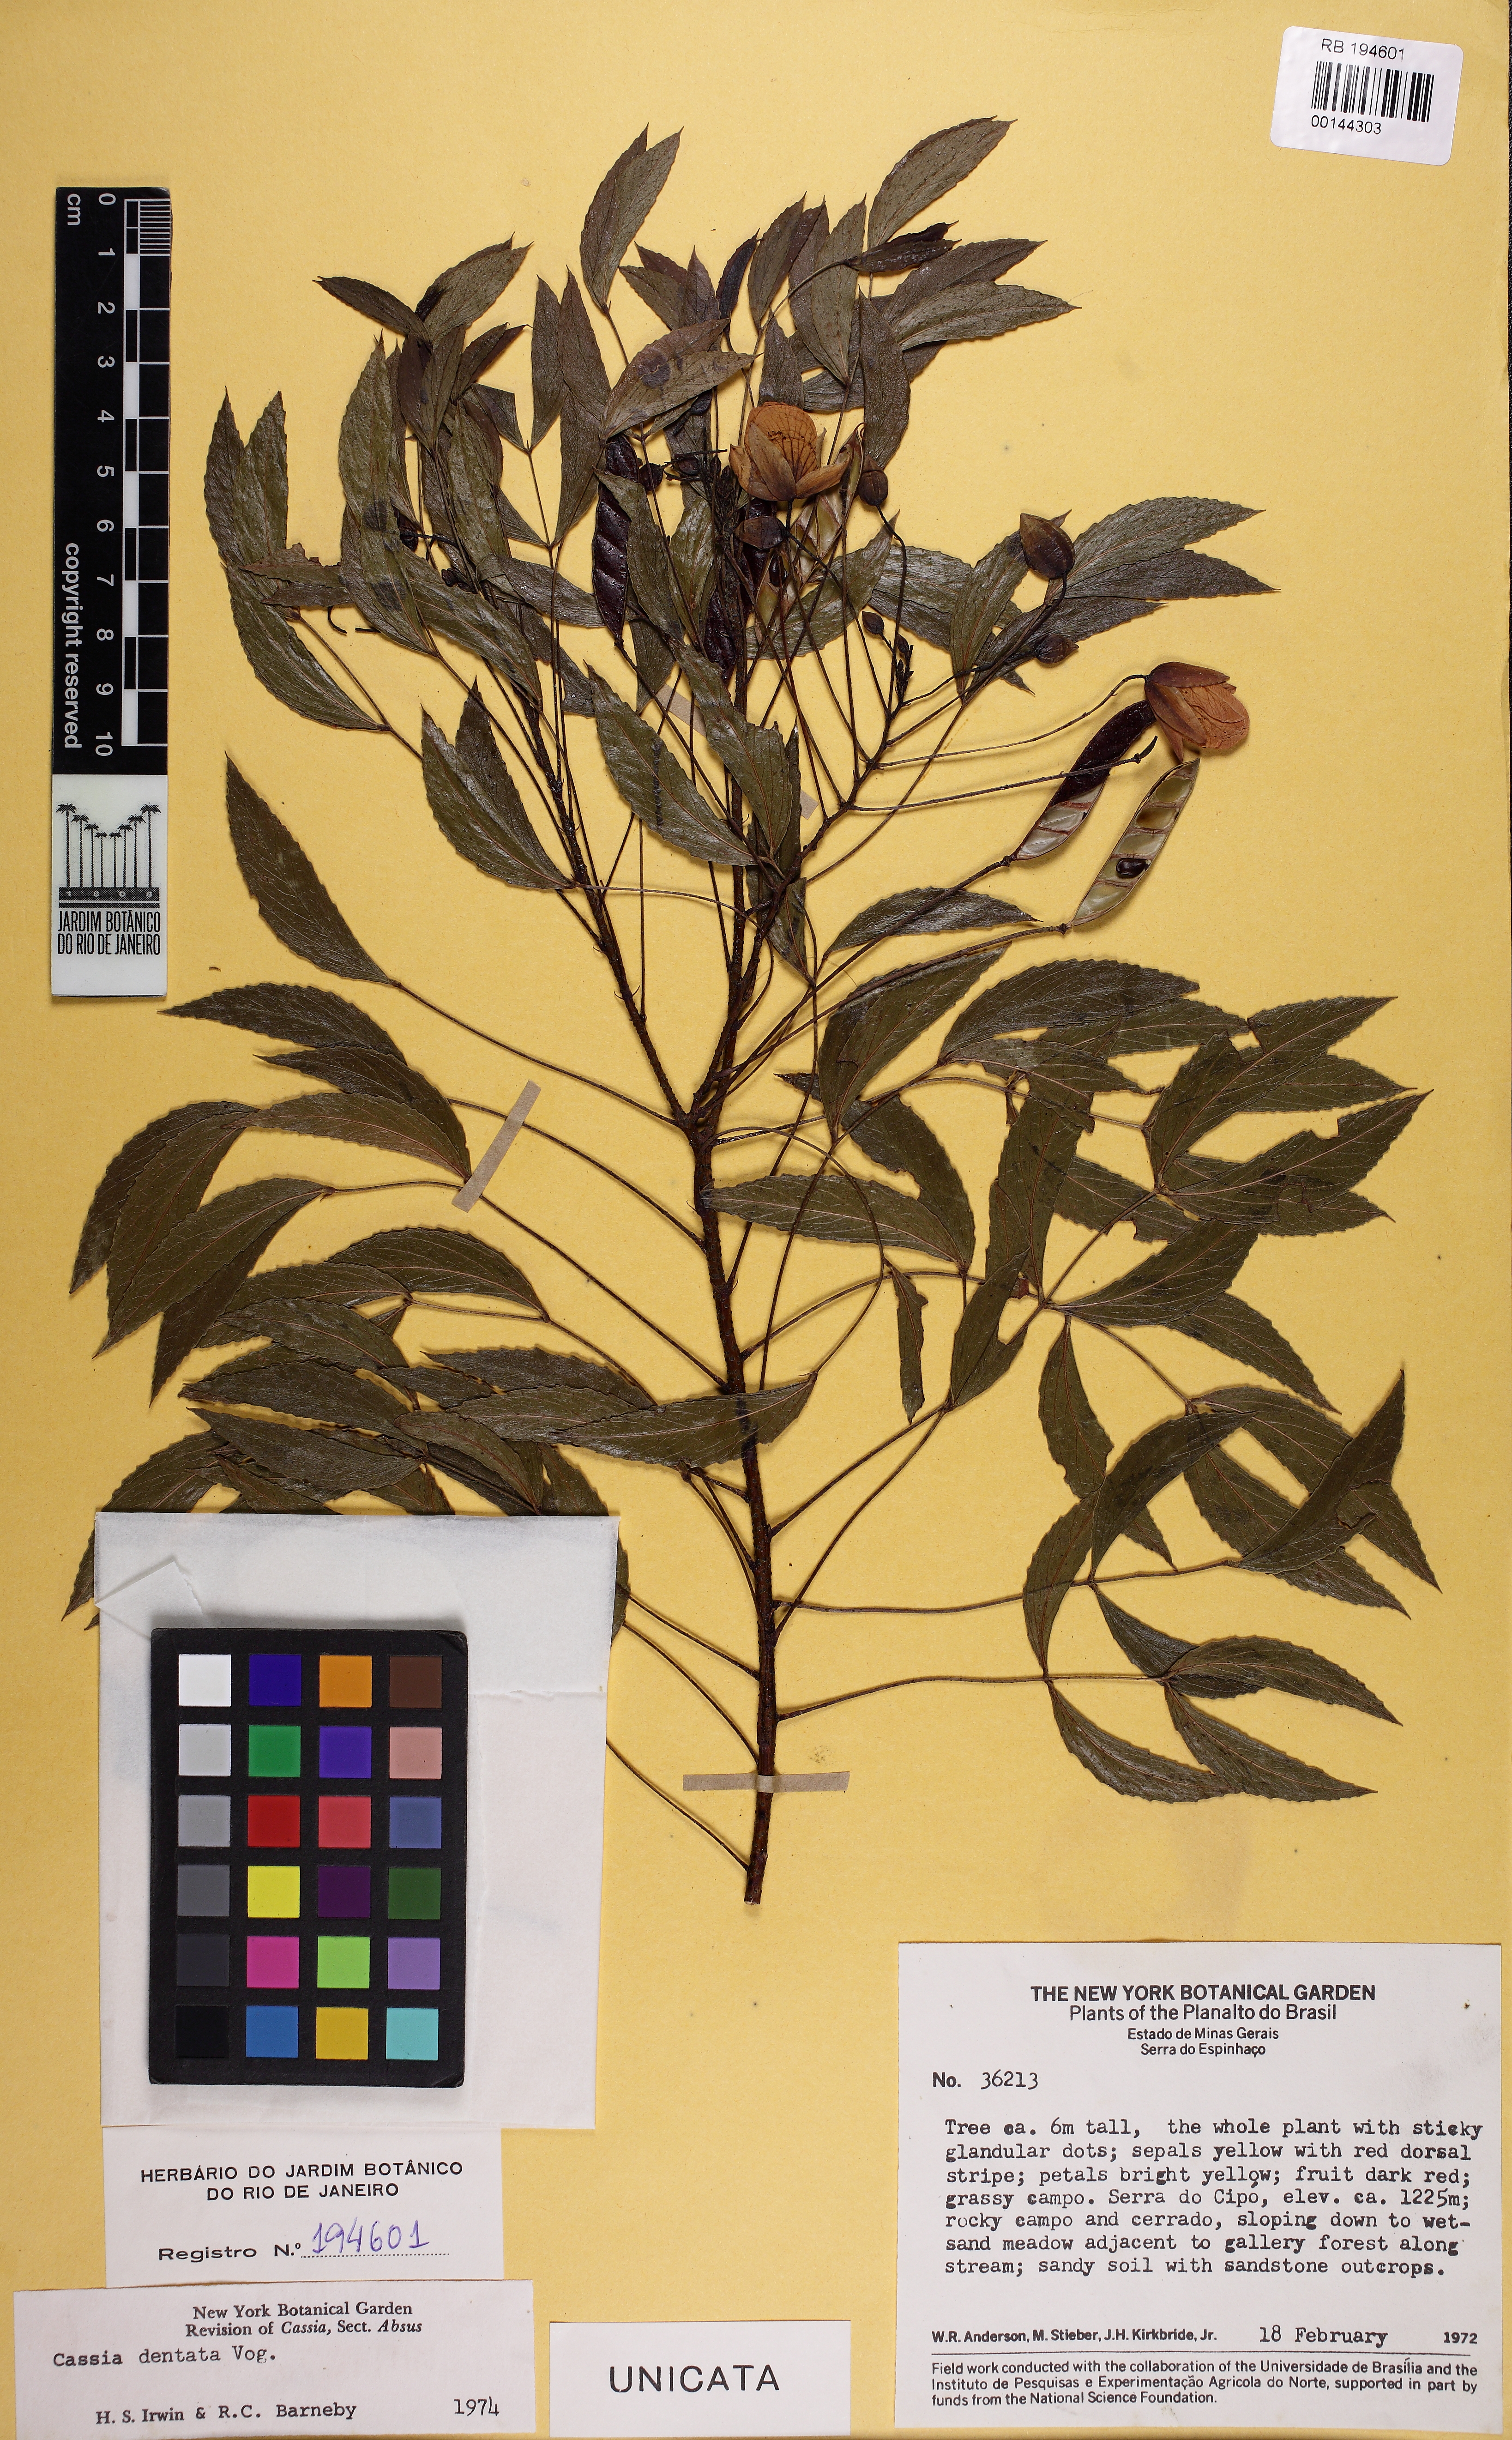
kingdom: Plantae
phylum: Tracheophyta
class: Magnoliopsida
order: Fabales
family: Fabaceae
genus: Chamaecrista
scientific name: Chamaecrista dentata
